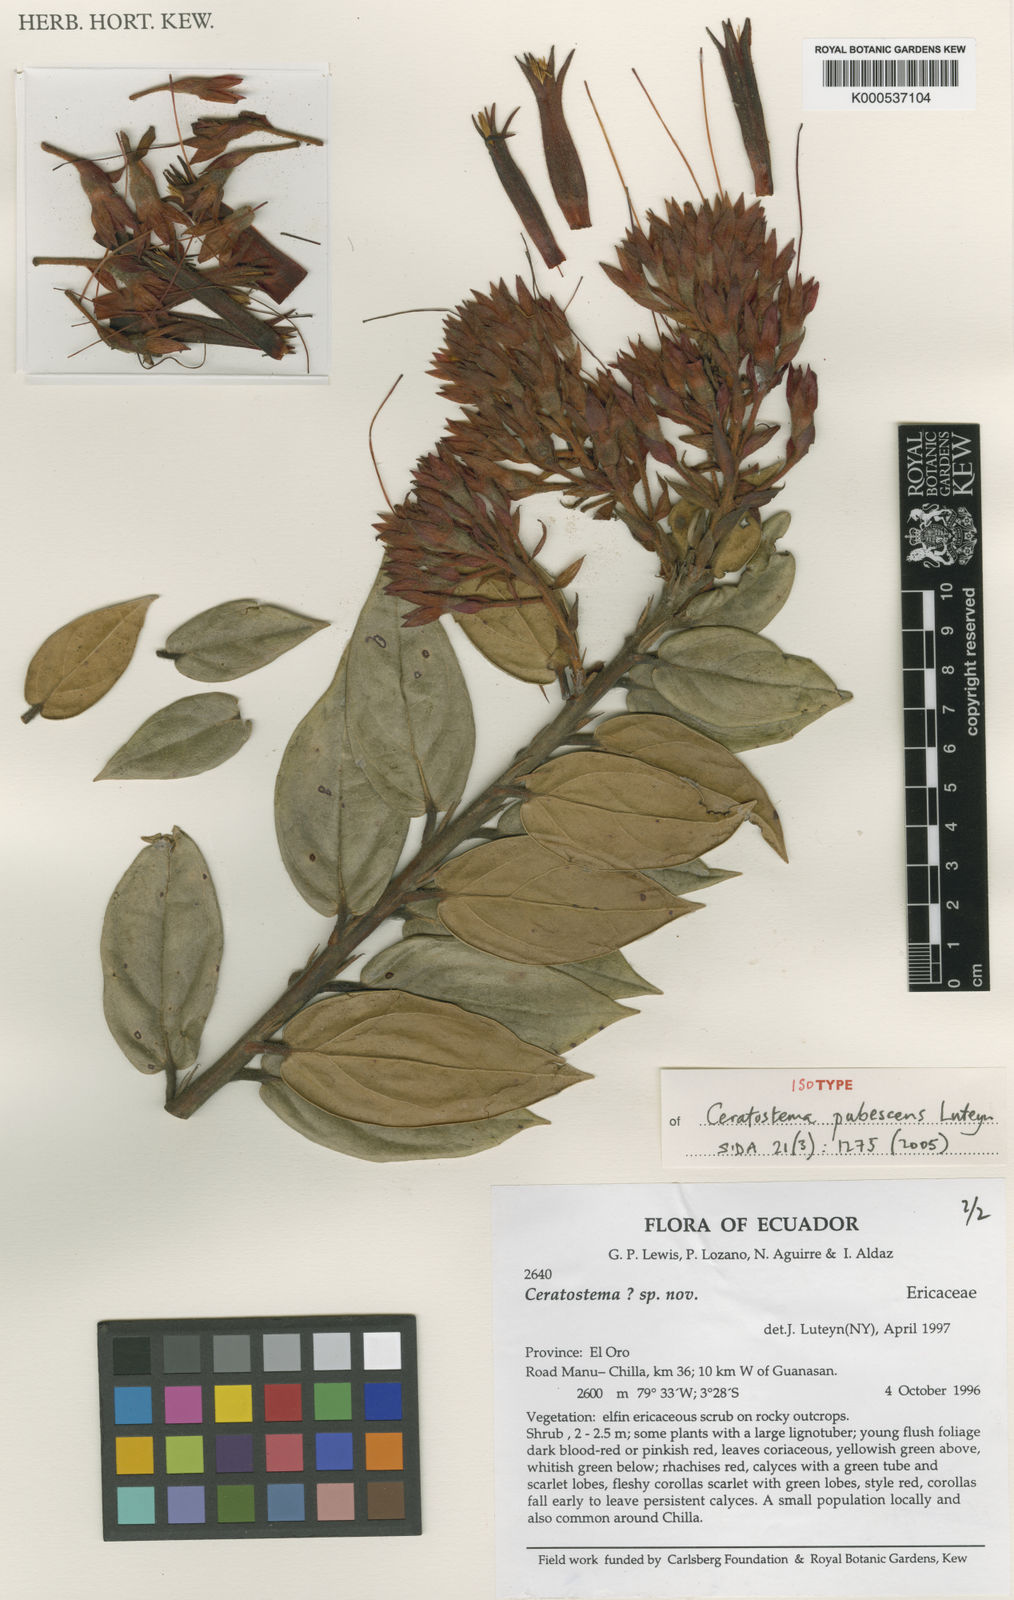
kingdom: Plantae
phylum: Tracheophyta
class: Magnoliopsida
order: Ericales
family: Ericaceae
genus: Ceratostema
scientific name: Ceratostema pubescens
